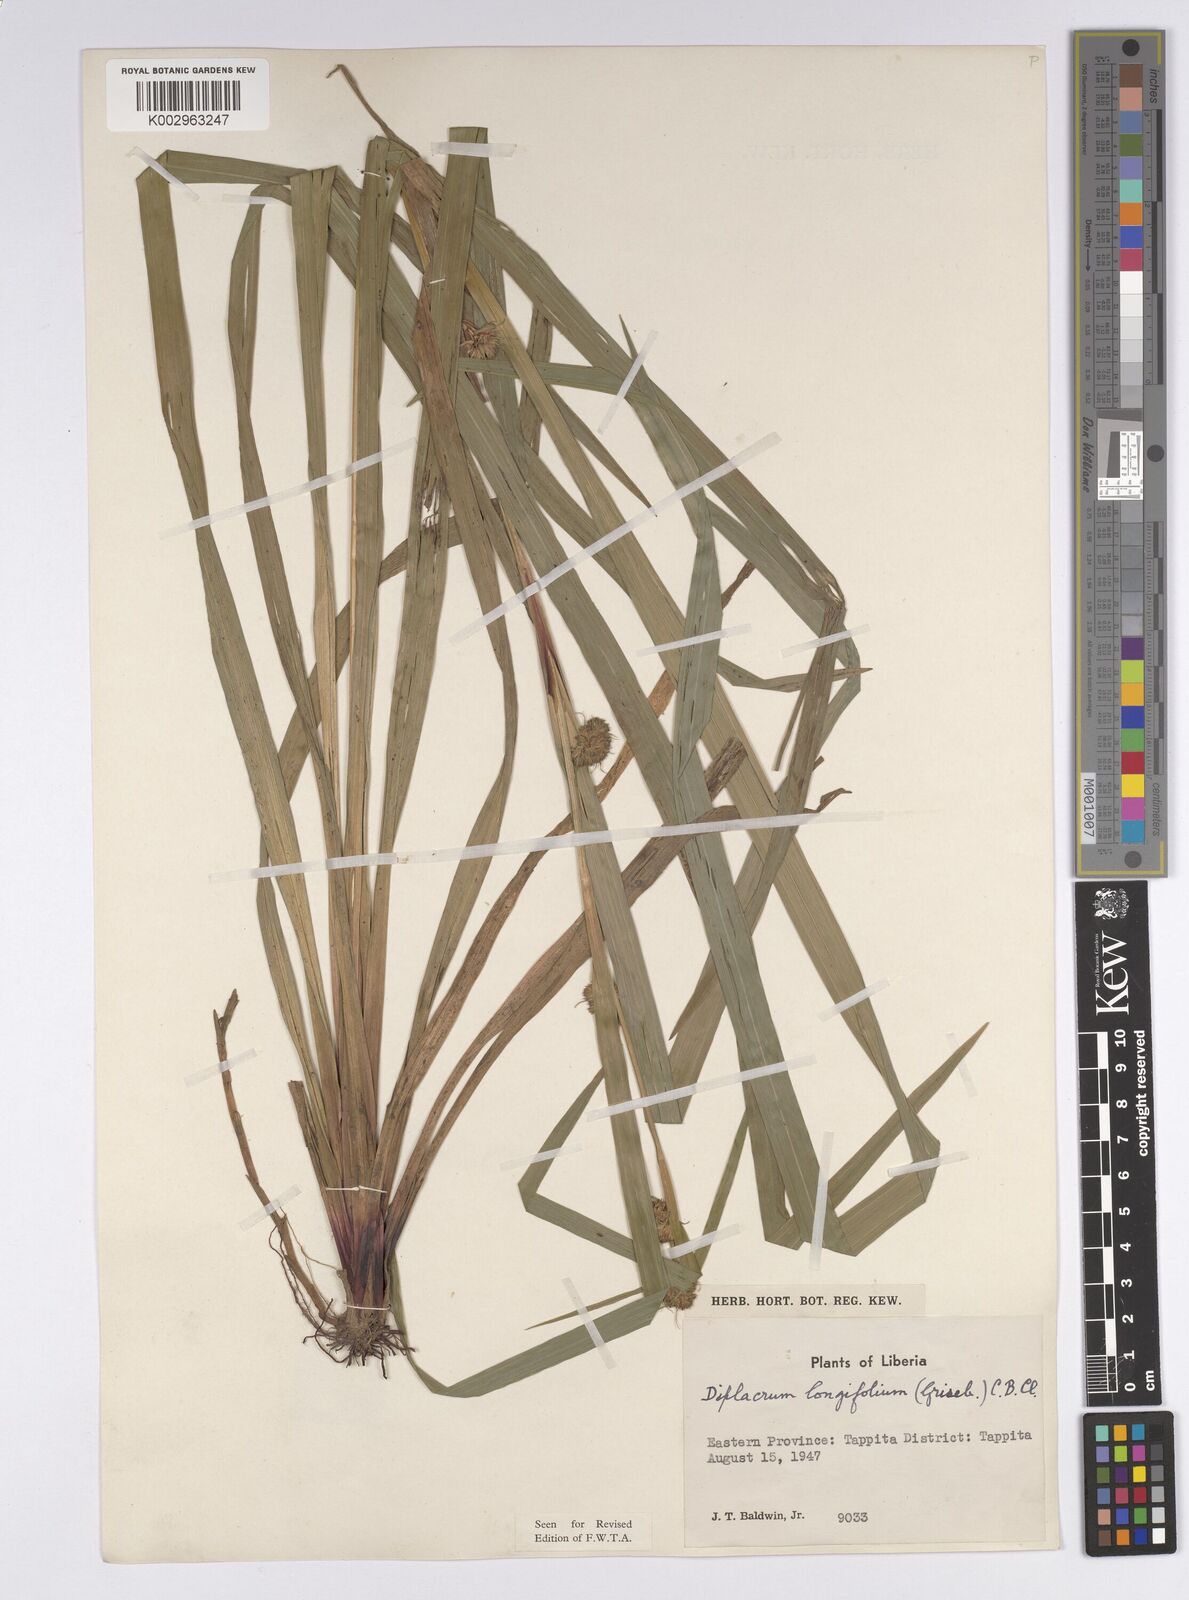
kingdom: Plantae
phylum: Tracheophyta
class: Liliopsida
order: Poales
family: Cyperaceae
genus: Diplacrum
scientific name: Diplacrum capitatum
